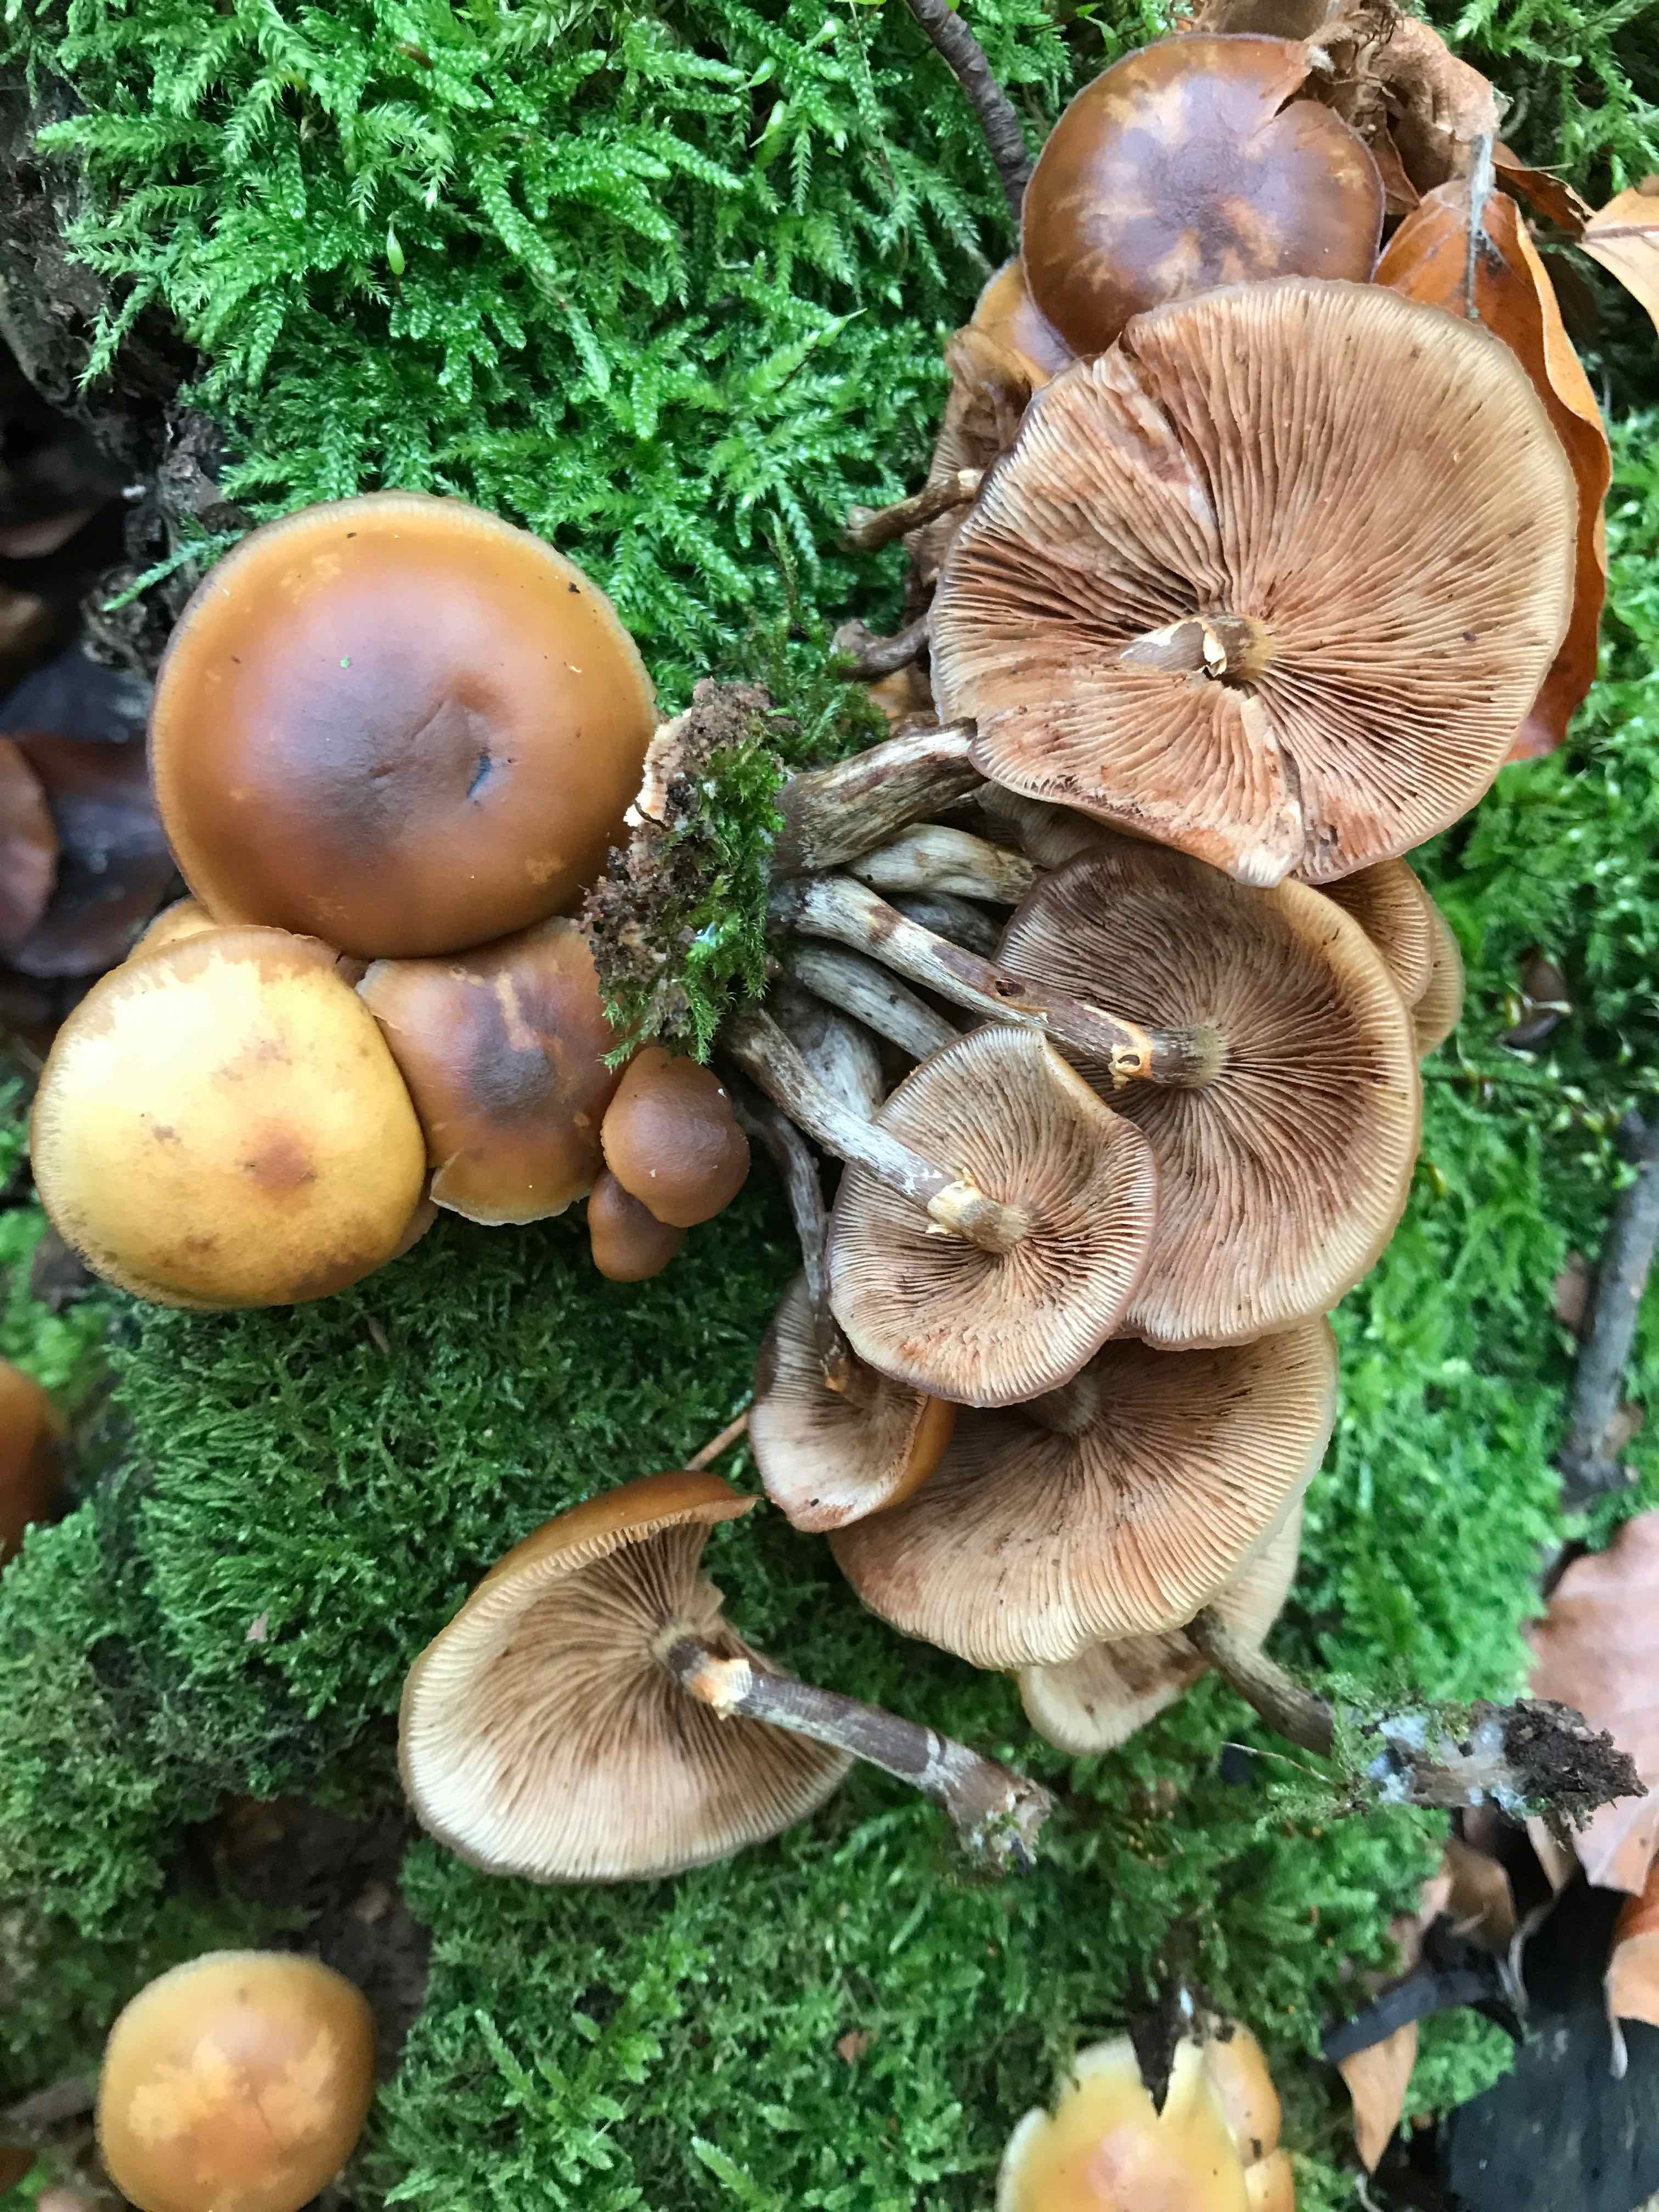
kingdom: Fungi
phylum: Basidiomycota
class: Agaricomycetes
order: Agaricales
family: Hymenogastraceae
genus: Galerina
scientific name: Galerina marginata
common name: randbæltet hjelmhat
